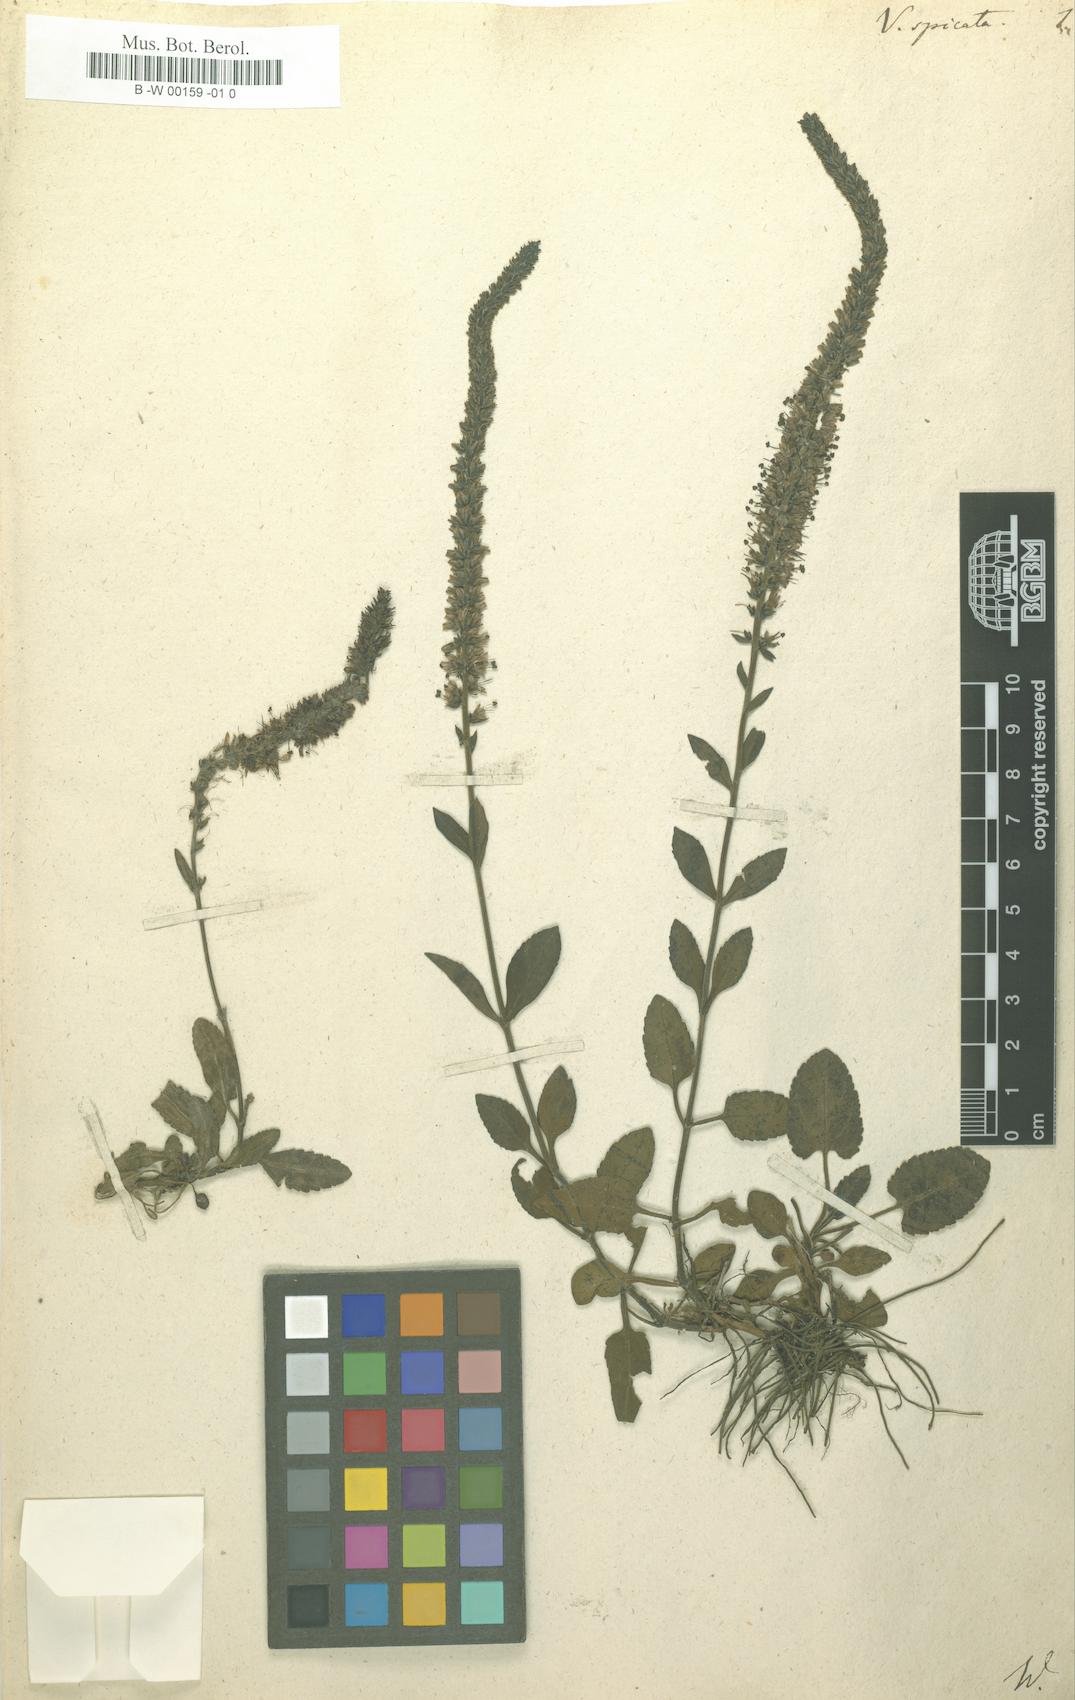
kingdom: Plantae
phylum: Tracheophyta
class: Magnoliopsida
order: Lamiales
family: Plantaginaceae
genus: Veronica
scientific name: Veronica spicata
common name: Spiked speedwell
